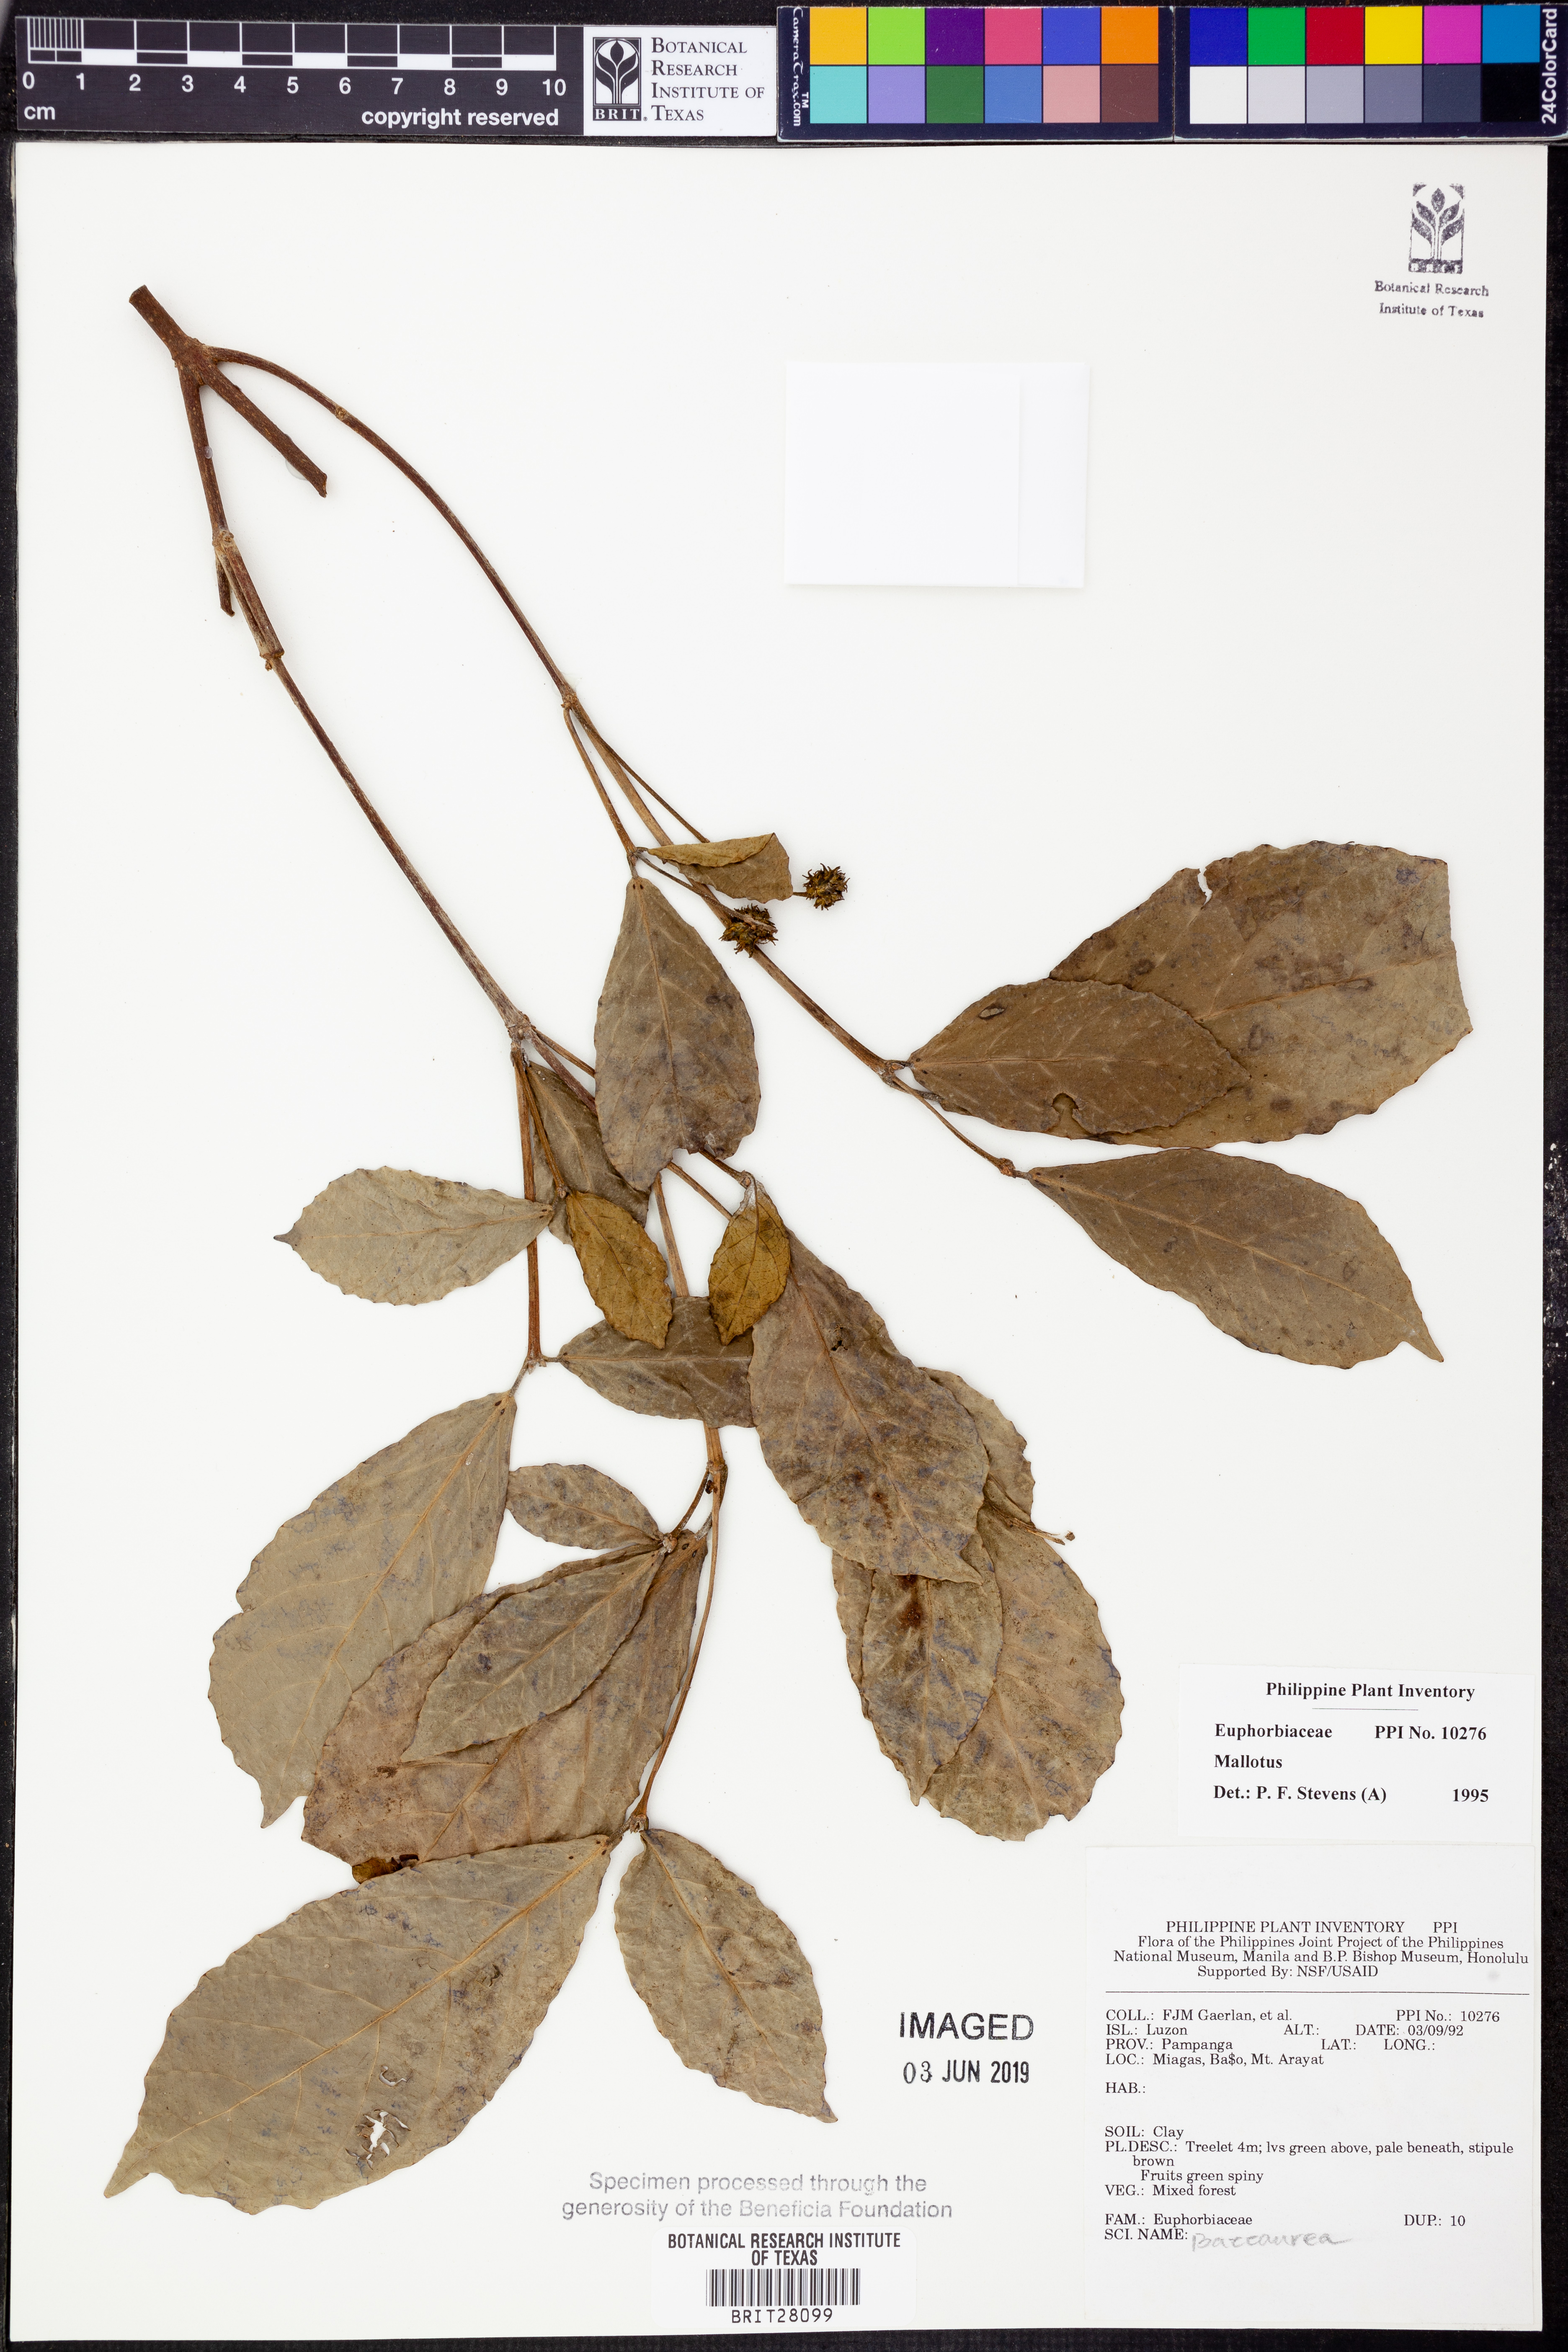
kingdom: Plantae
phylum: Tracheophyta
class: Magnoliopsida
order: Malpighiales
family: Euphorbiaceae
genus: Mallotus
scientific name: Mallotus
